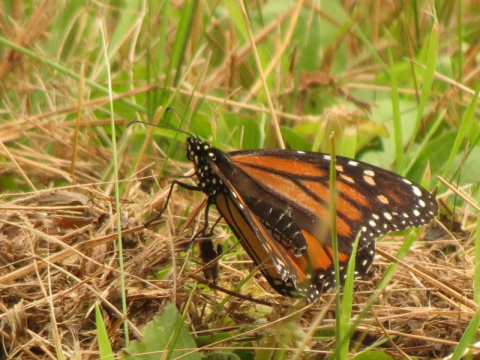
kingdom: Animalia
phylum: Arthropoda
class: Insecta
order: Lepidoptera
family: Nymphalidae
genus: Danaus
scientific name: Danaus plexippus
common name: Monarch
